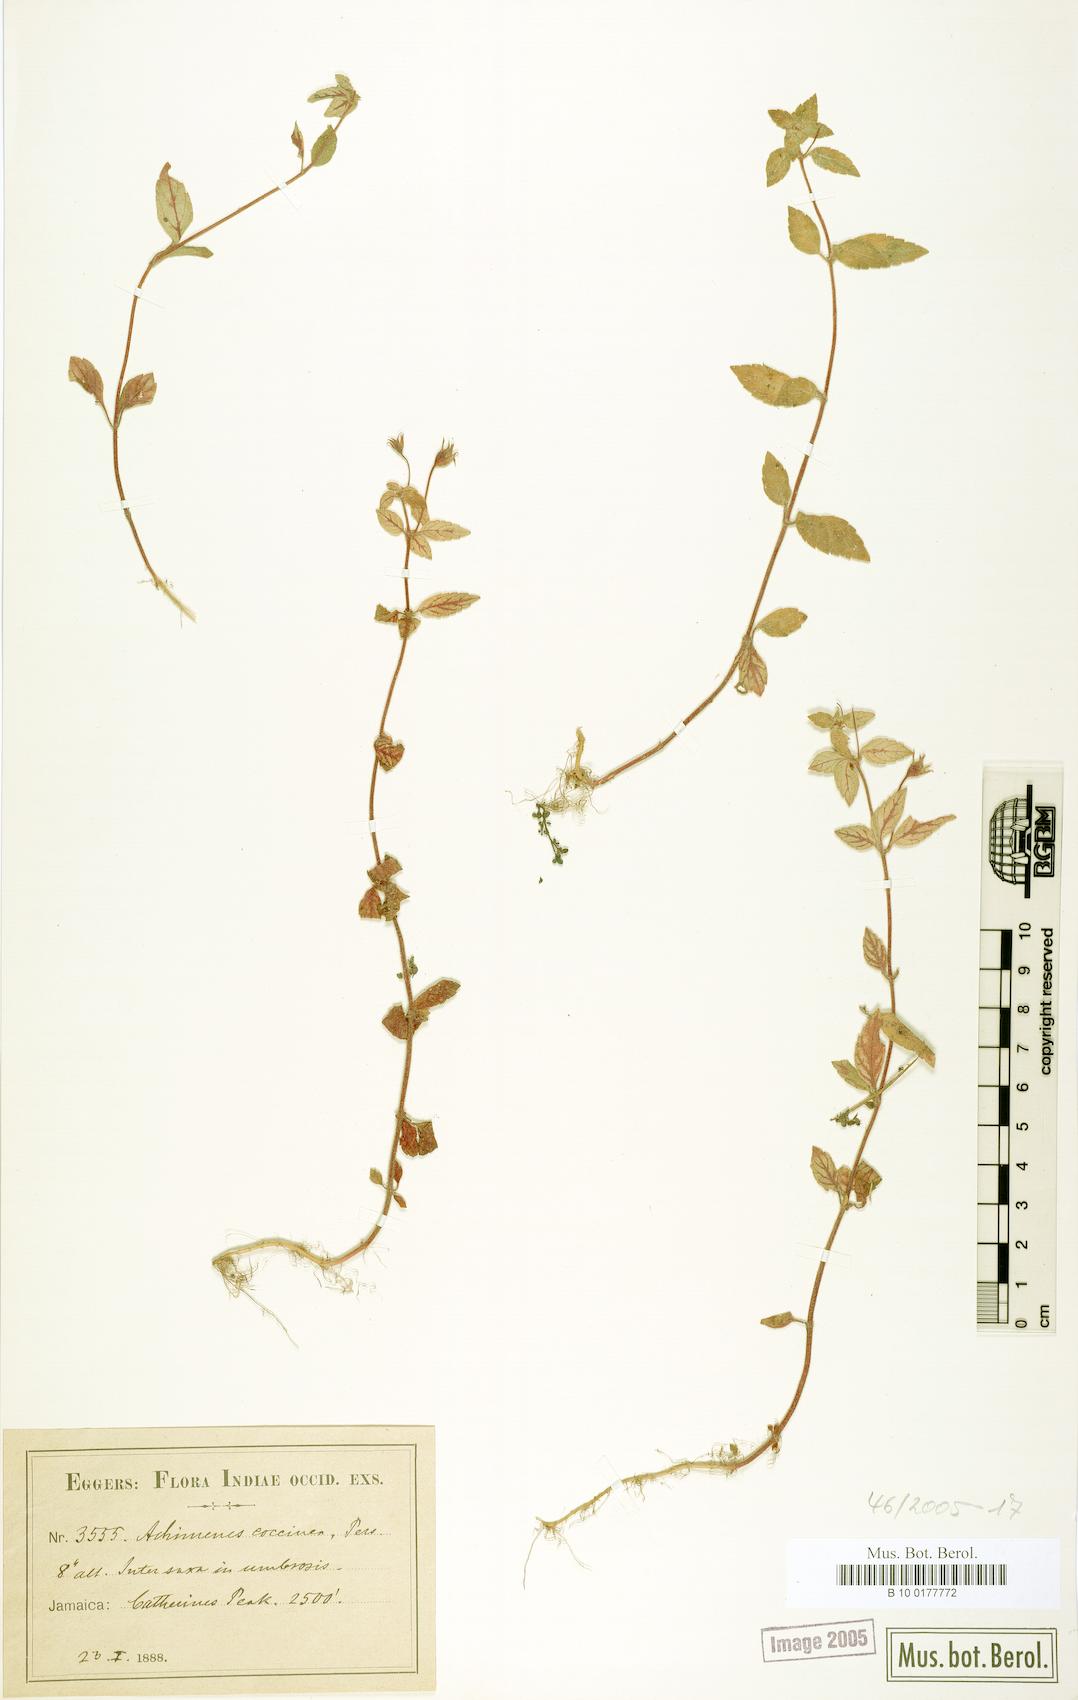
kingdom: Plantae
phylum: Tracheophyta
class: Magnoliopsida
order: Lamiales
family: Gesneriaceae
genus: Achimenes
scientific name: Achimenes erecta
